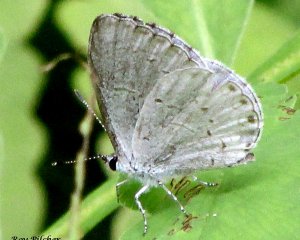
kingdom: Animalia
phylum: Arthropoda
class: Insecta
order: Lepidoptera
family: Lycaenidae
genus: Cyaniris
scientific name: Cyaniris neglecta
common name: Summer Azure
